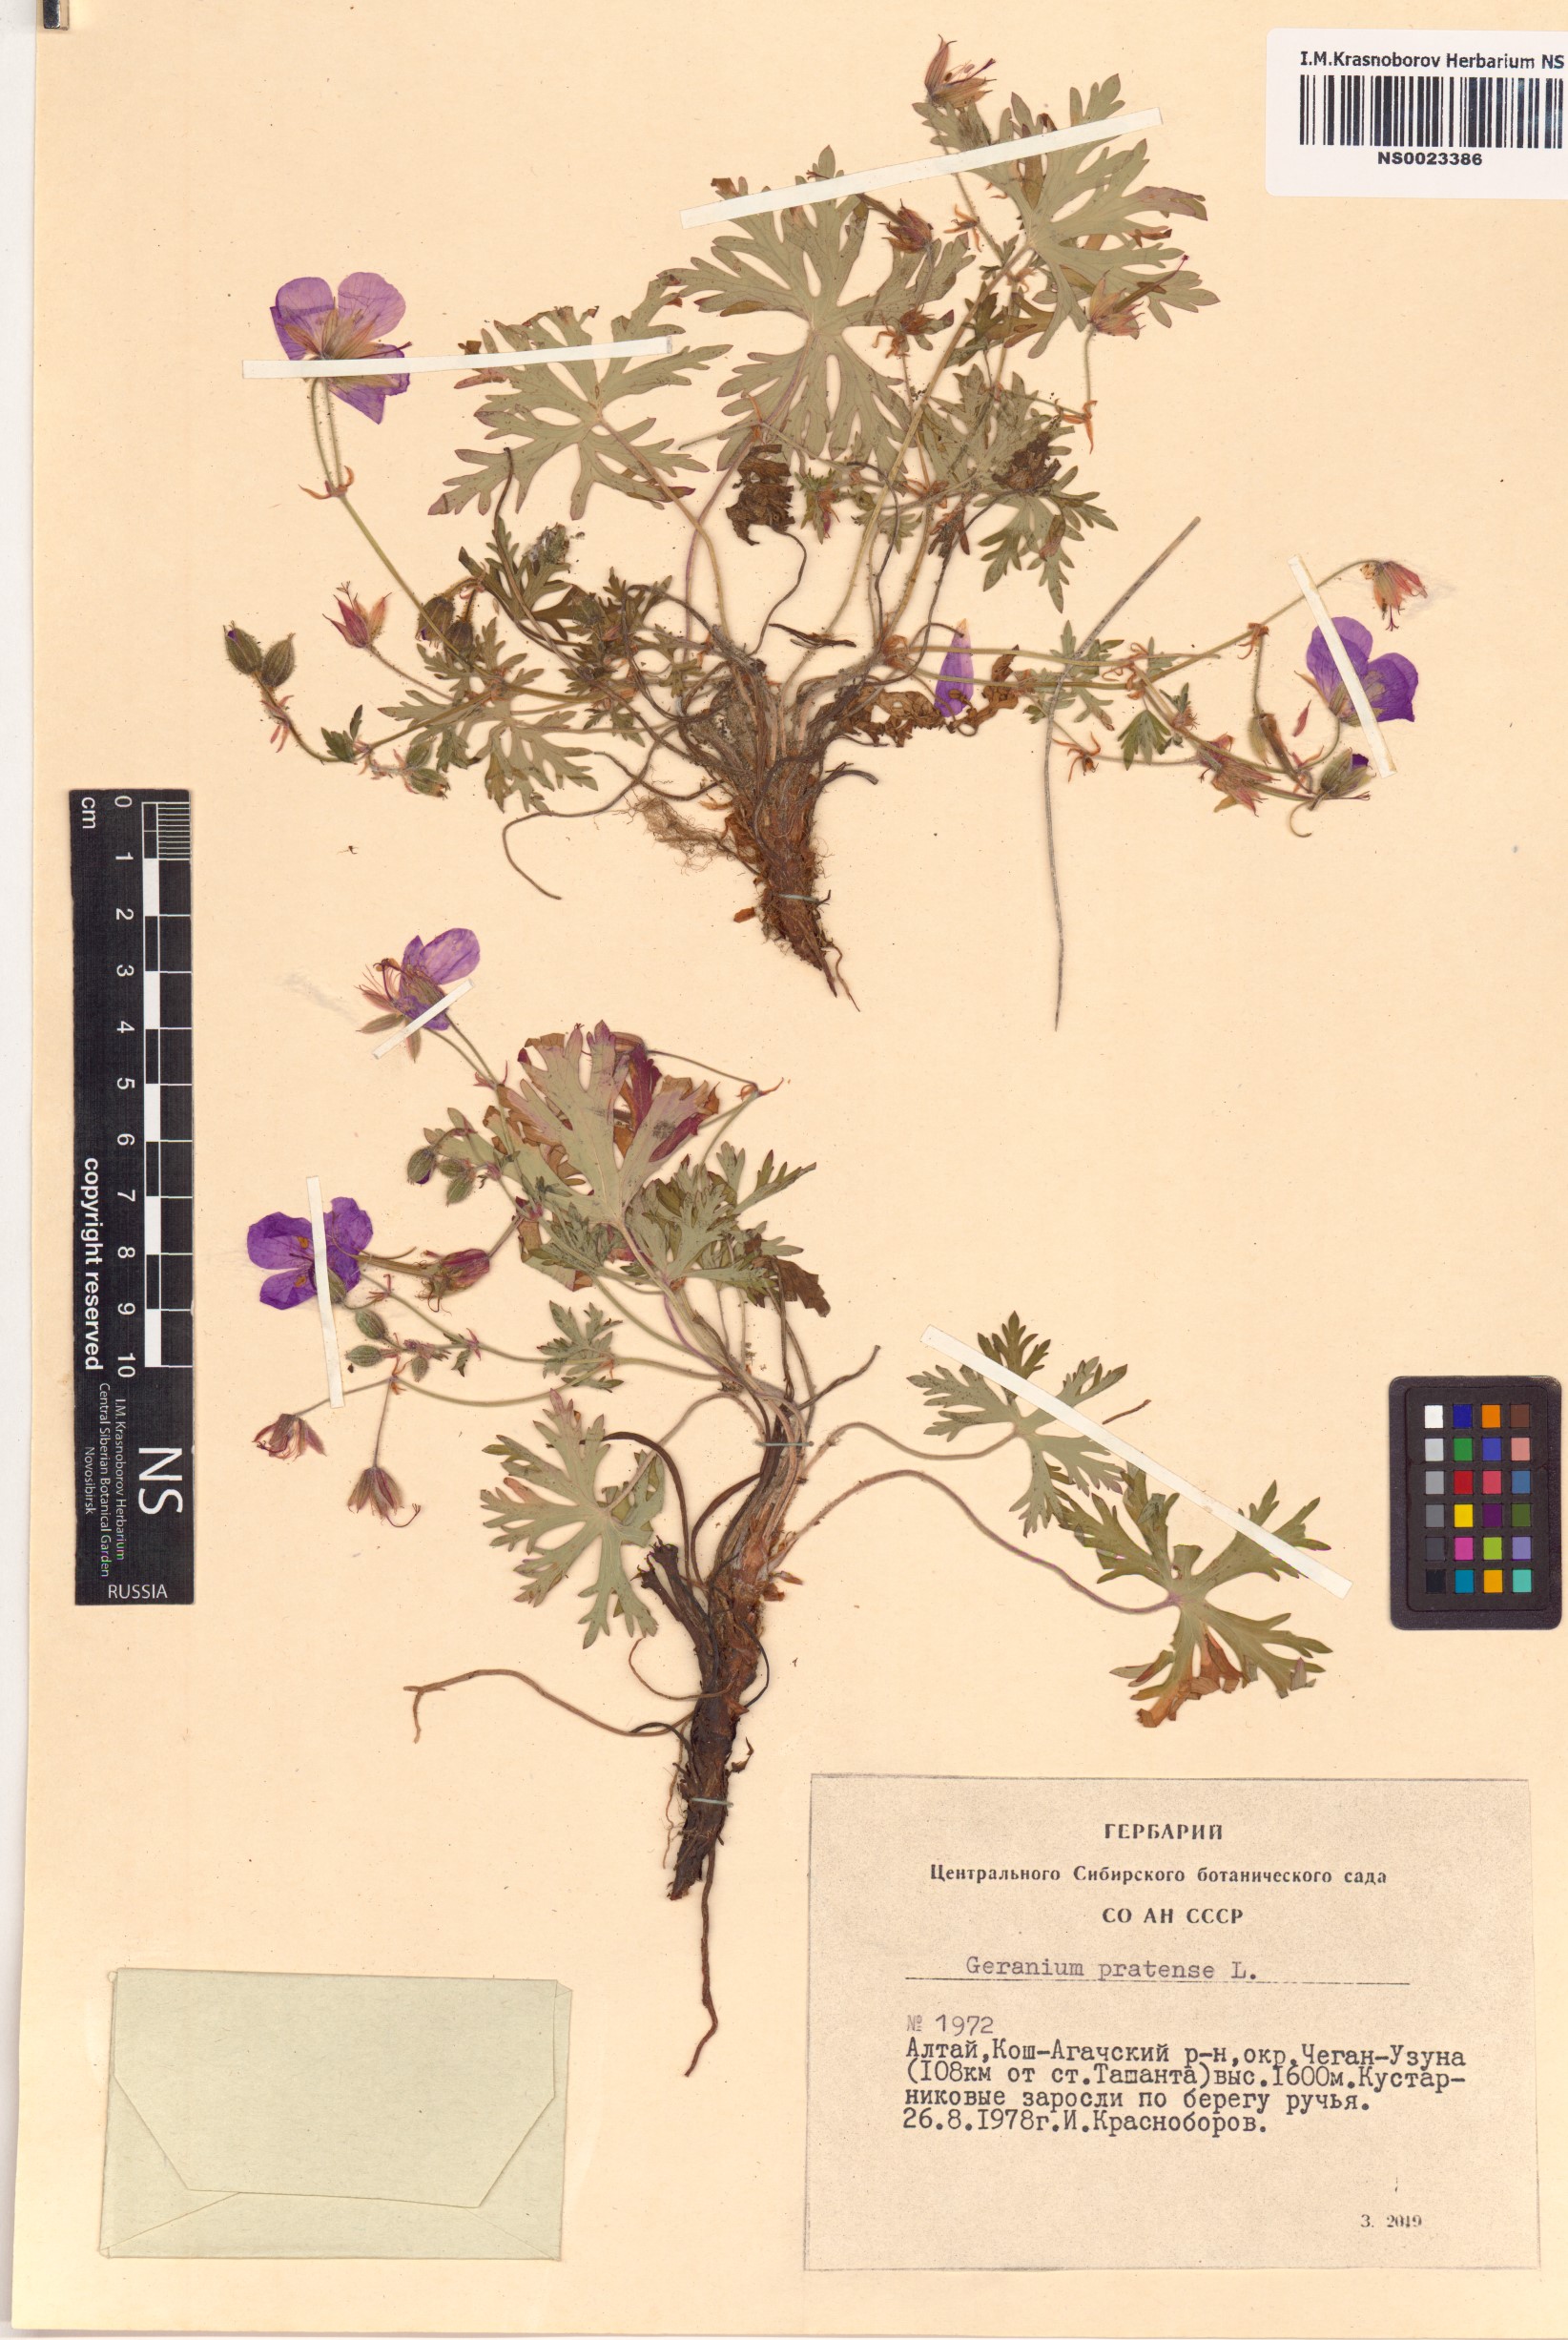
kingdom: Plantae
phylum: Tracheophyta
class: Magnoliopsida
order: Geraniales
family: Geraniaceae
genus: Geranium
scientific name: Geranium pratense
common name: Meadow crane's-bill
